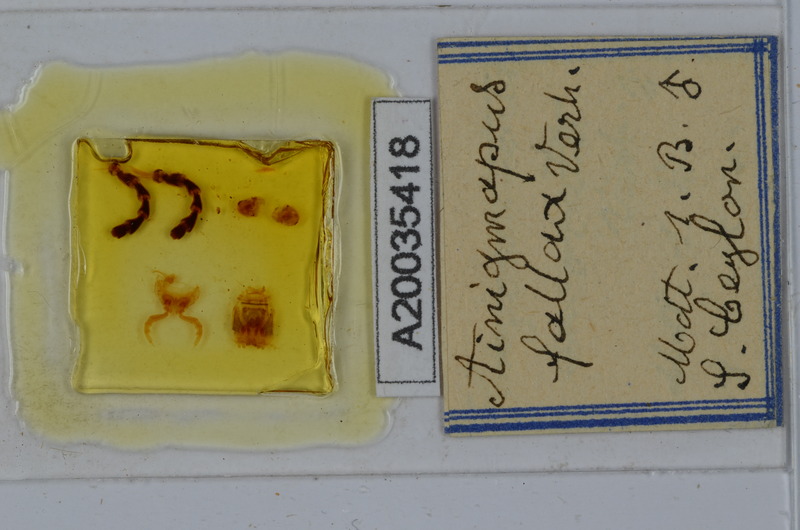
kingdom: Animalia
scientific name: Animalia
